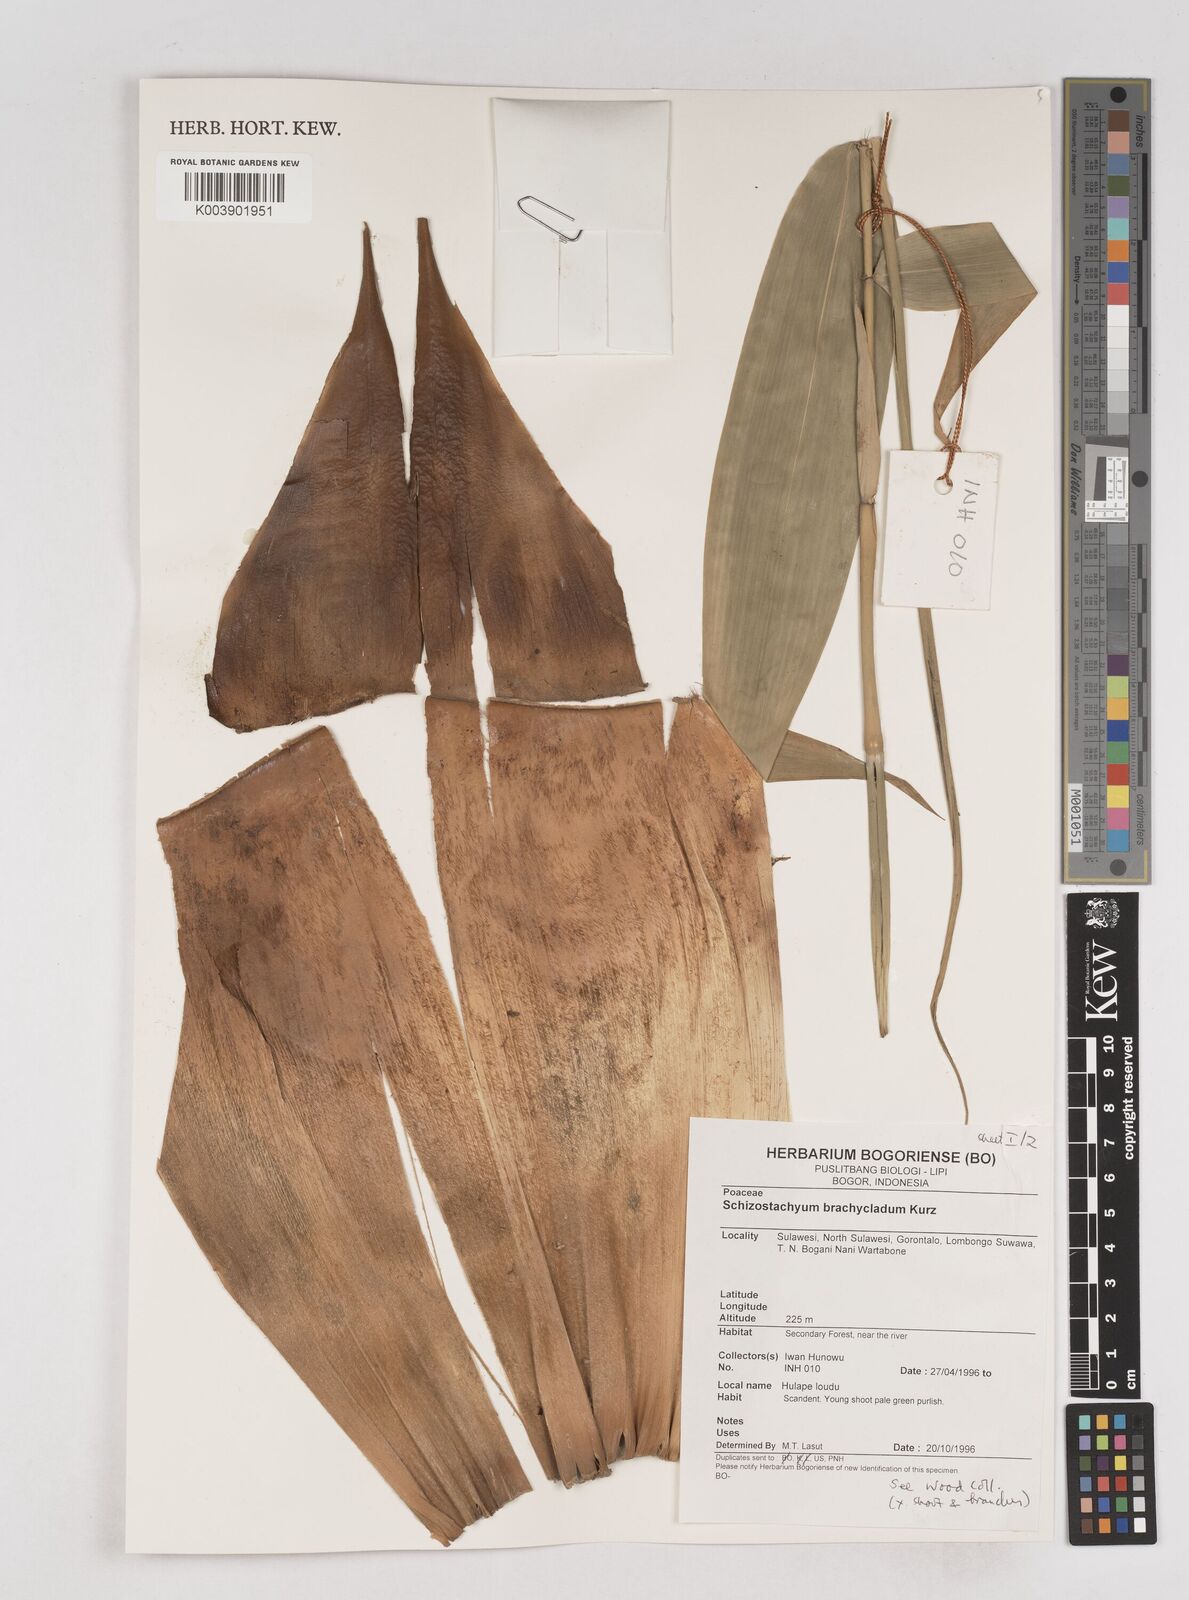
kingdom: Plantae
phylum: Tracheophyta
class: Liliopsida
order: Poales
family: Poaceae
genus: Schizostachyum
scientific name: Schizostachyum brachycladum
